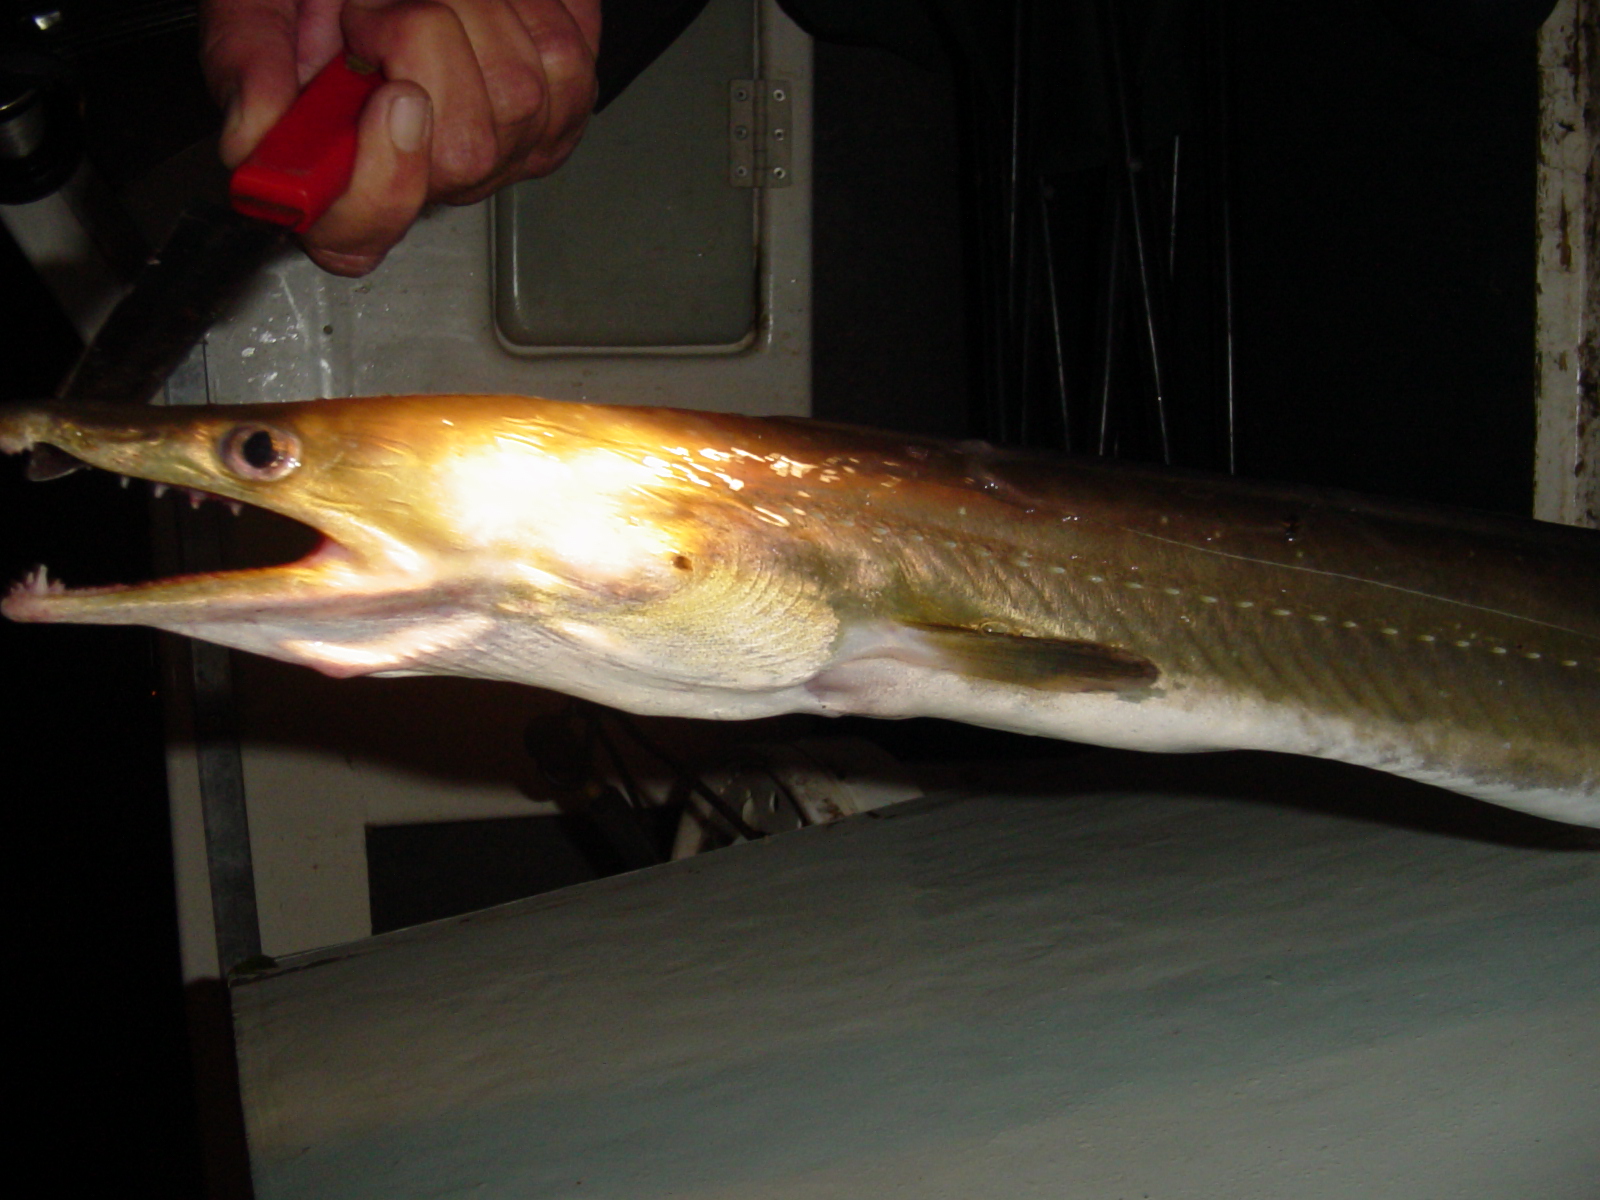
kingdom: Animalia
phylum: Chordata
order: Anguilliformes
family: Muraenesocidae
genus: Muraenesox
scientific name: Muraenesox bagio
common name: Common pike conger
